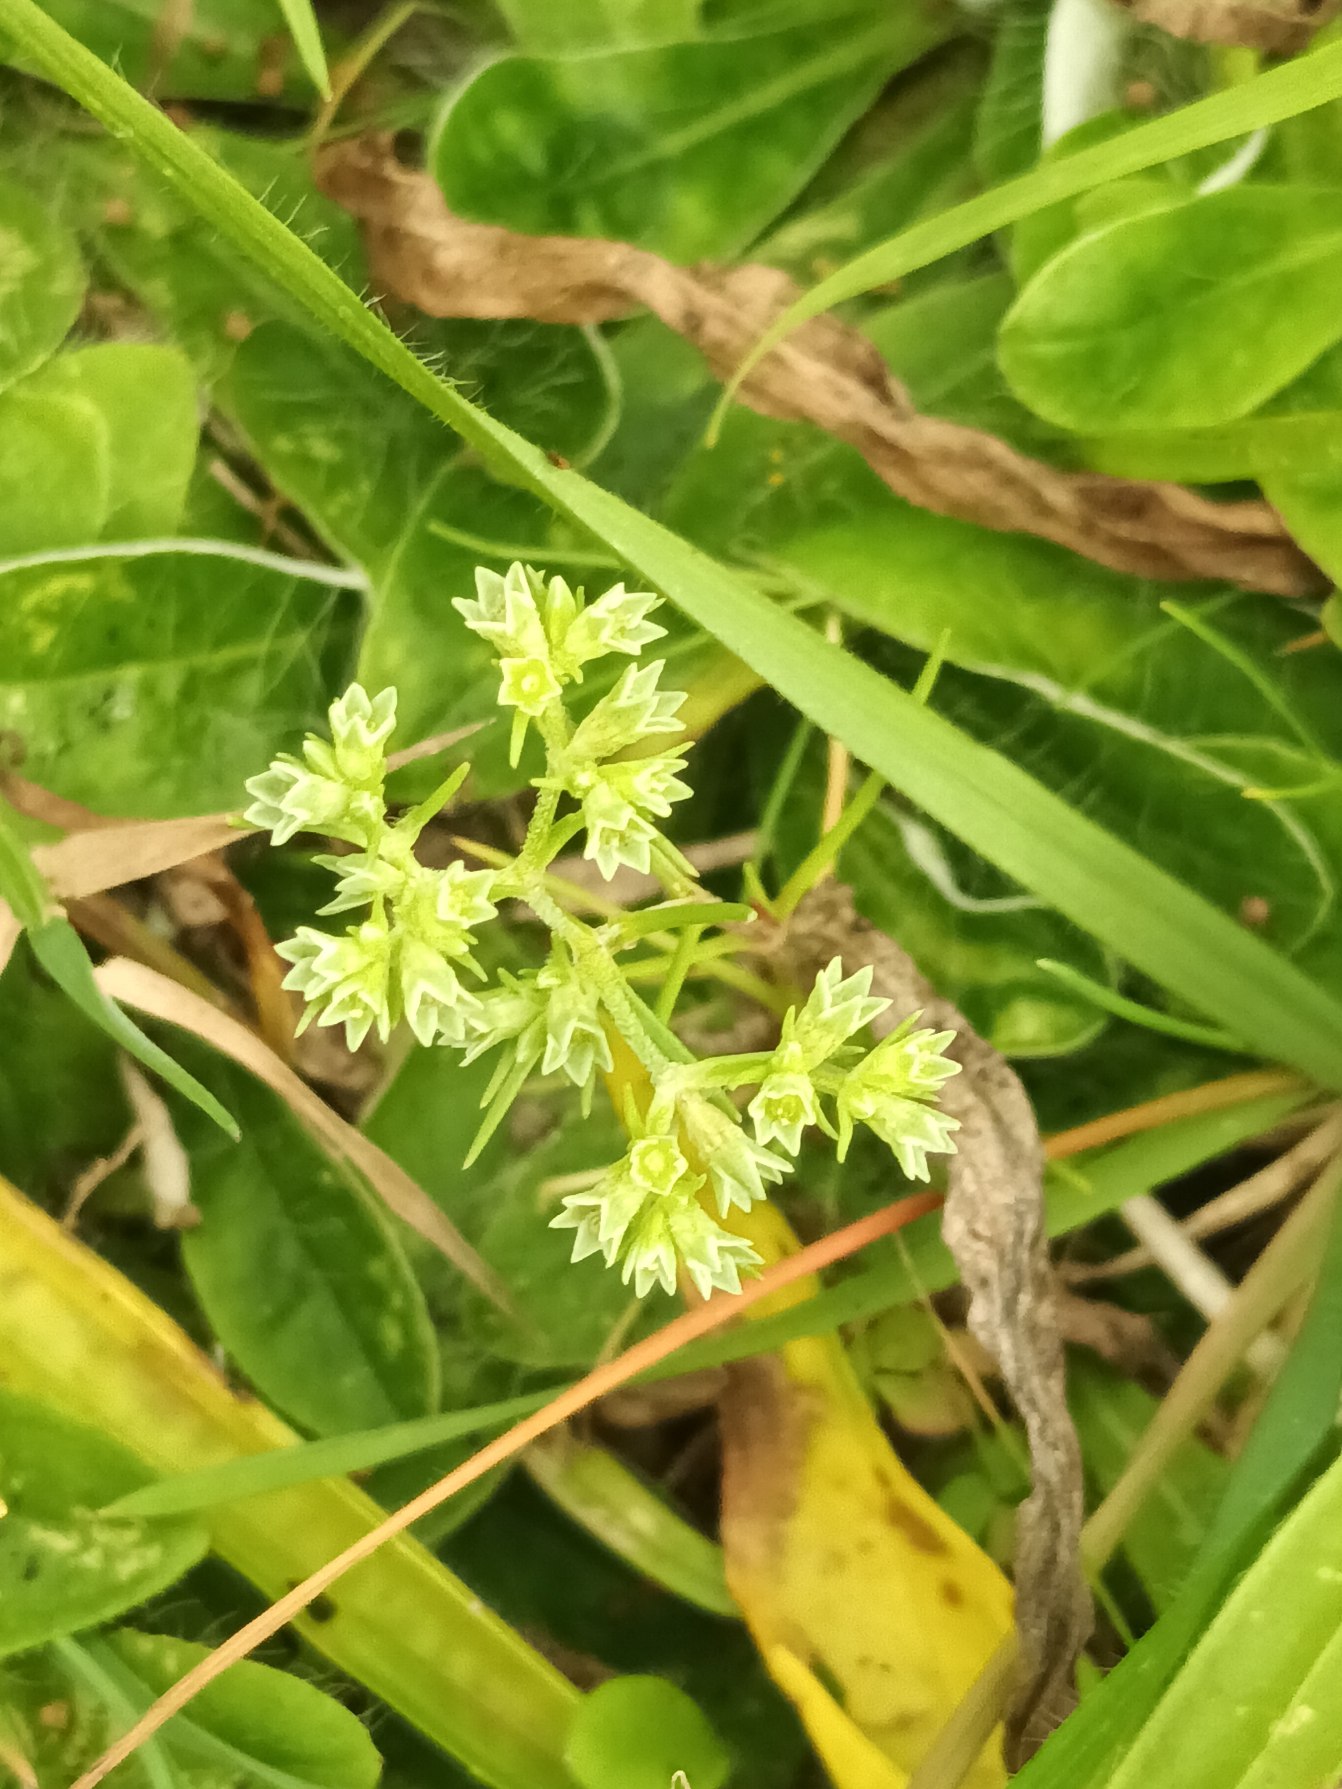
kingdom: Plantae
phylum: Tracheophyta
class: Magnoliopsida
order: Caryophyllales
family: Caryophyllaceae
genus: Scleranthus
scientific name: Scleranthus annuus
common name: Enårig knavel (underart)
